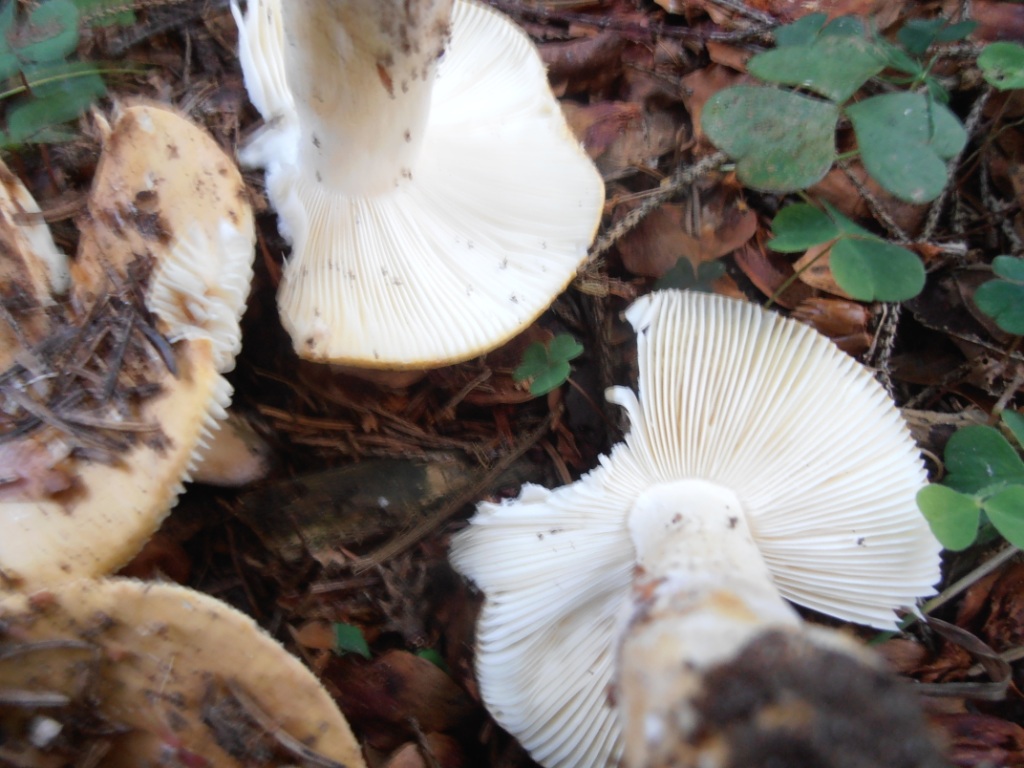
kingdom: Fungi
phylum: Basidiomycota
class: Agaricomycetes
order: Russulales
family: Russulaceae
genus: Russula
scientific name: Russula ochroleuca
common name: okkergul skørhat
